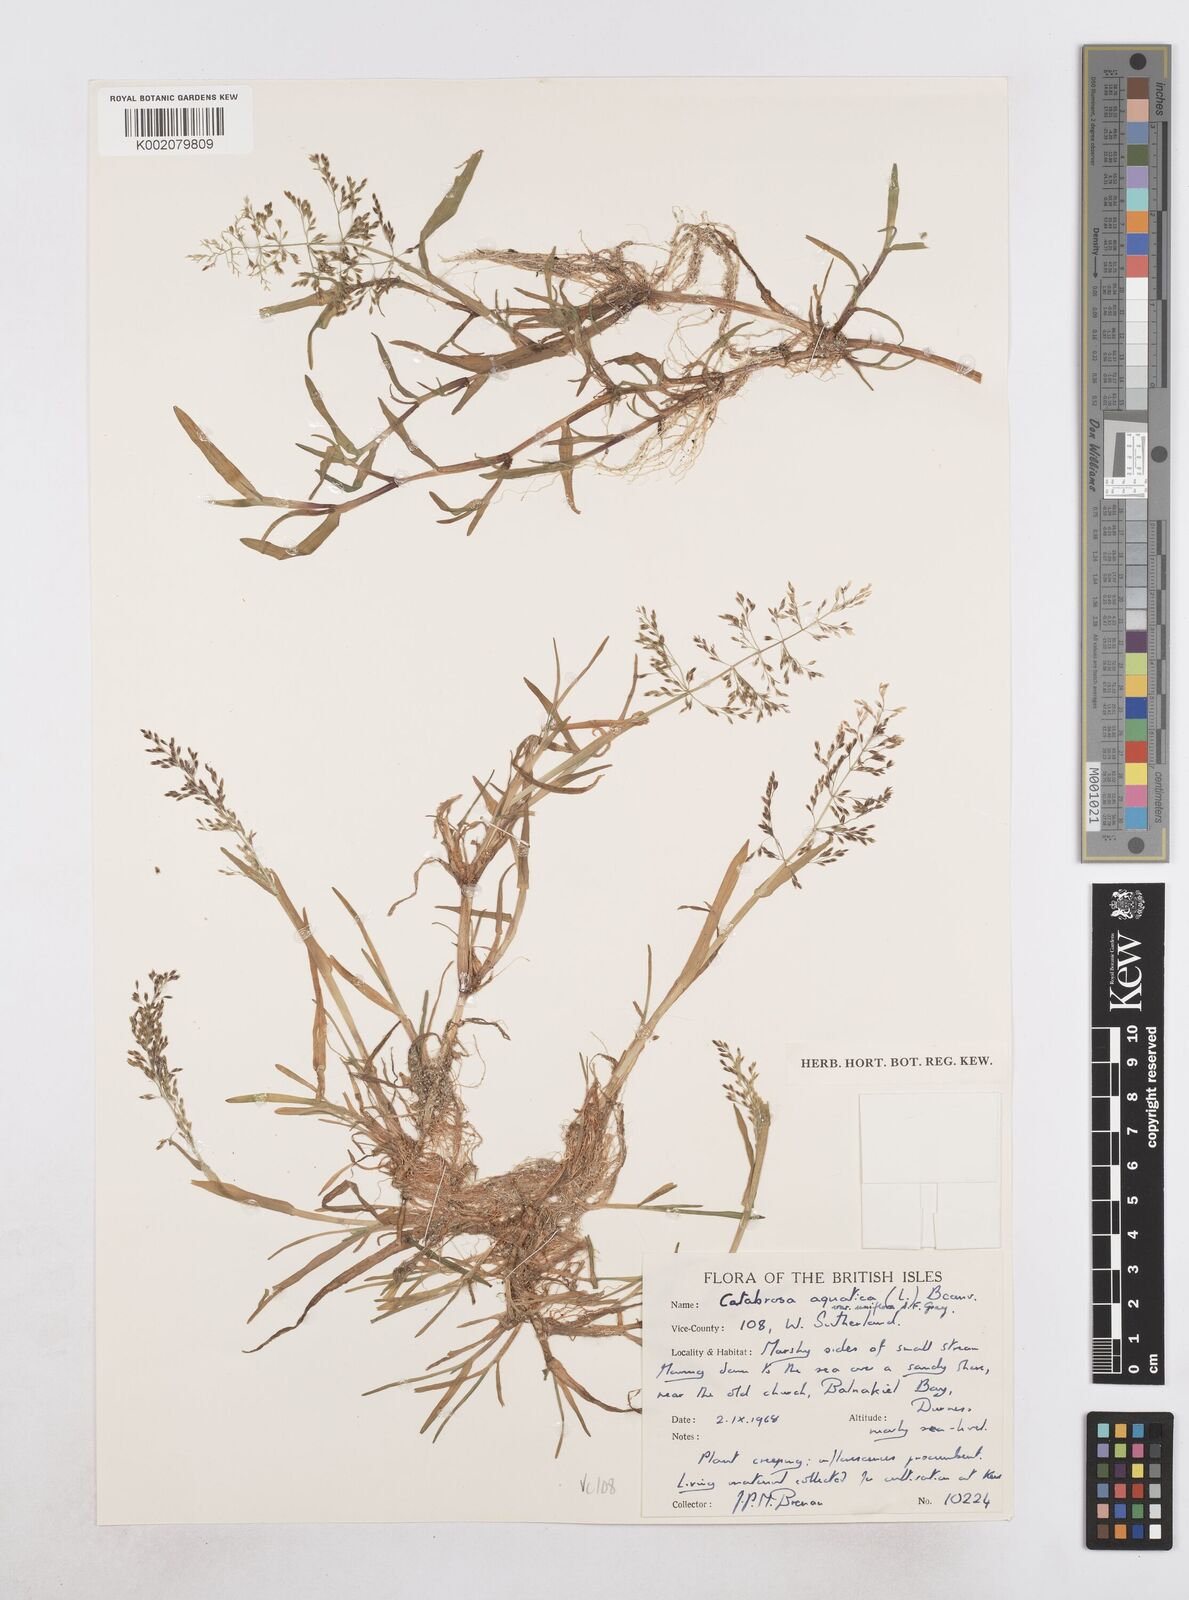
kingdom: Plantae
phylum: Tracheophyta
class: Liliopsida
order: Poales
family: Poaceae
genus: Catabrosa
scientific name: Catabrosa aquatica
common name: Whorl-grass
